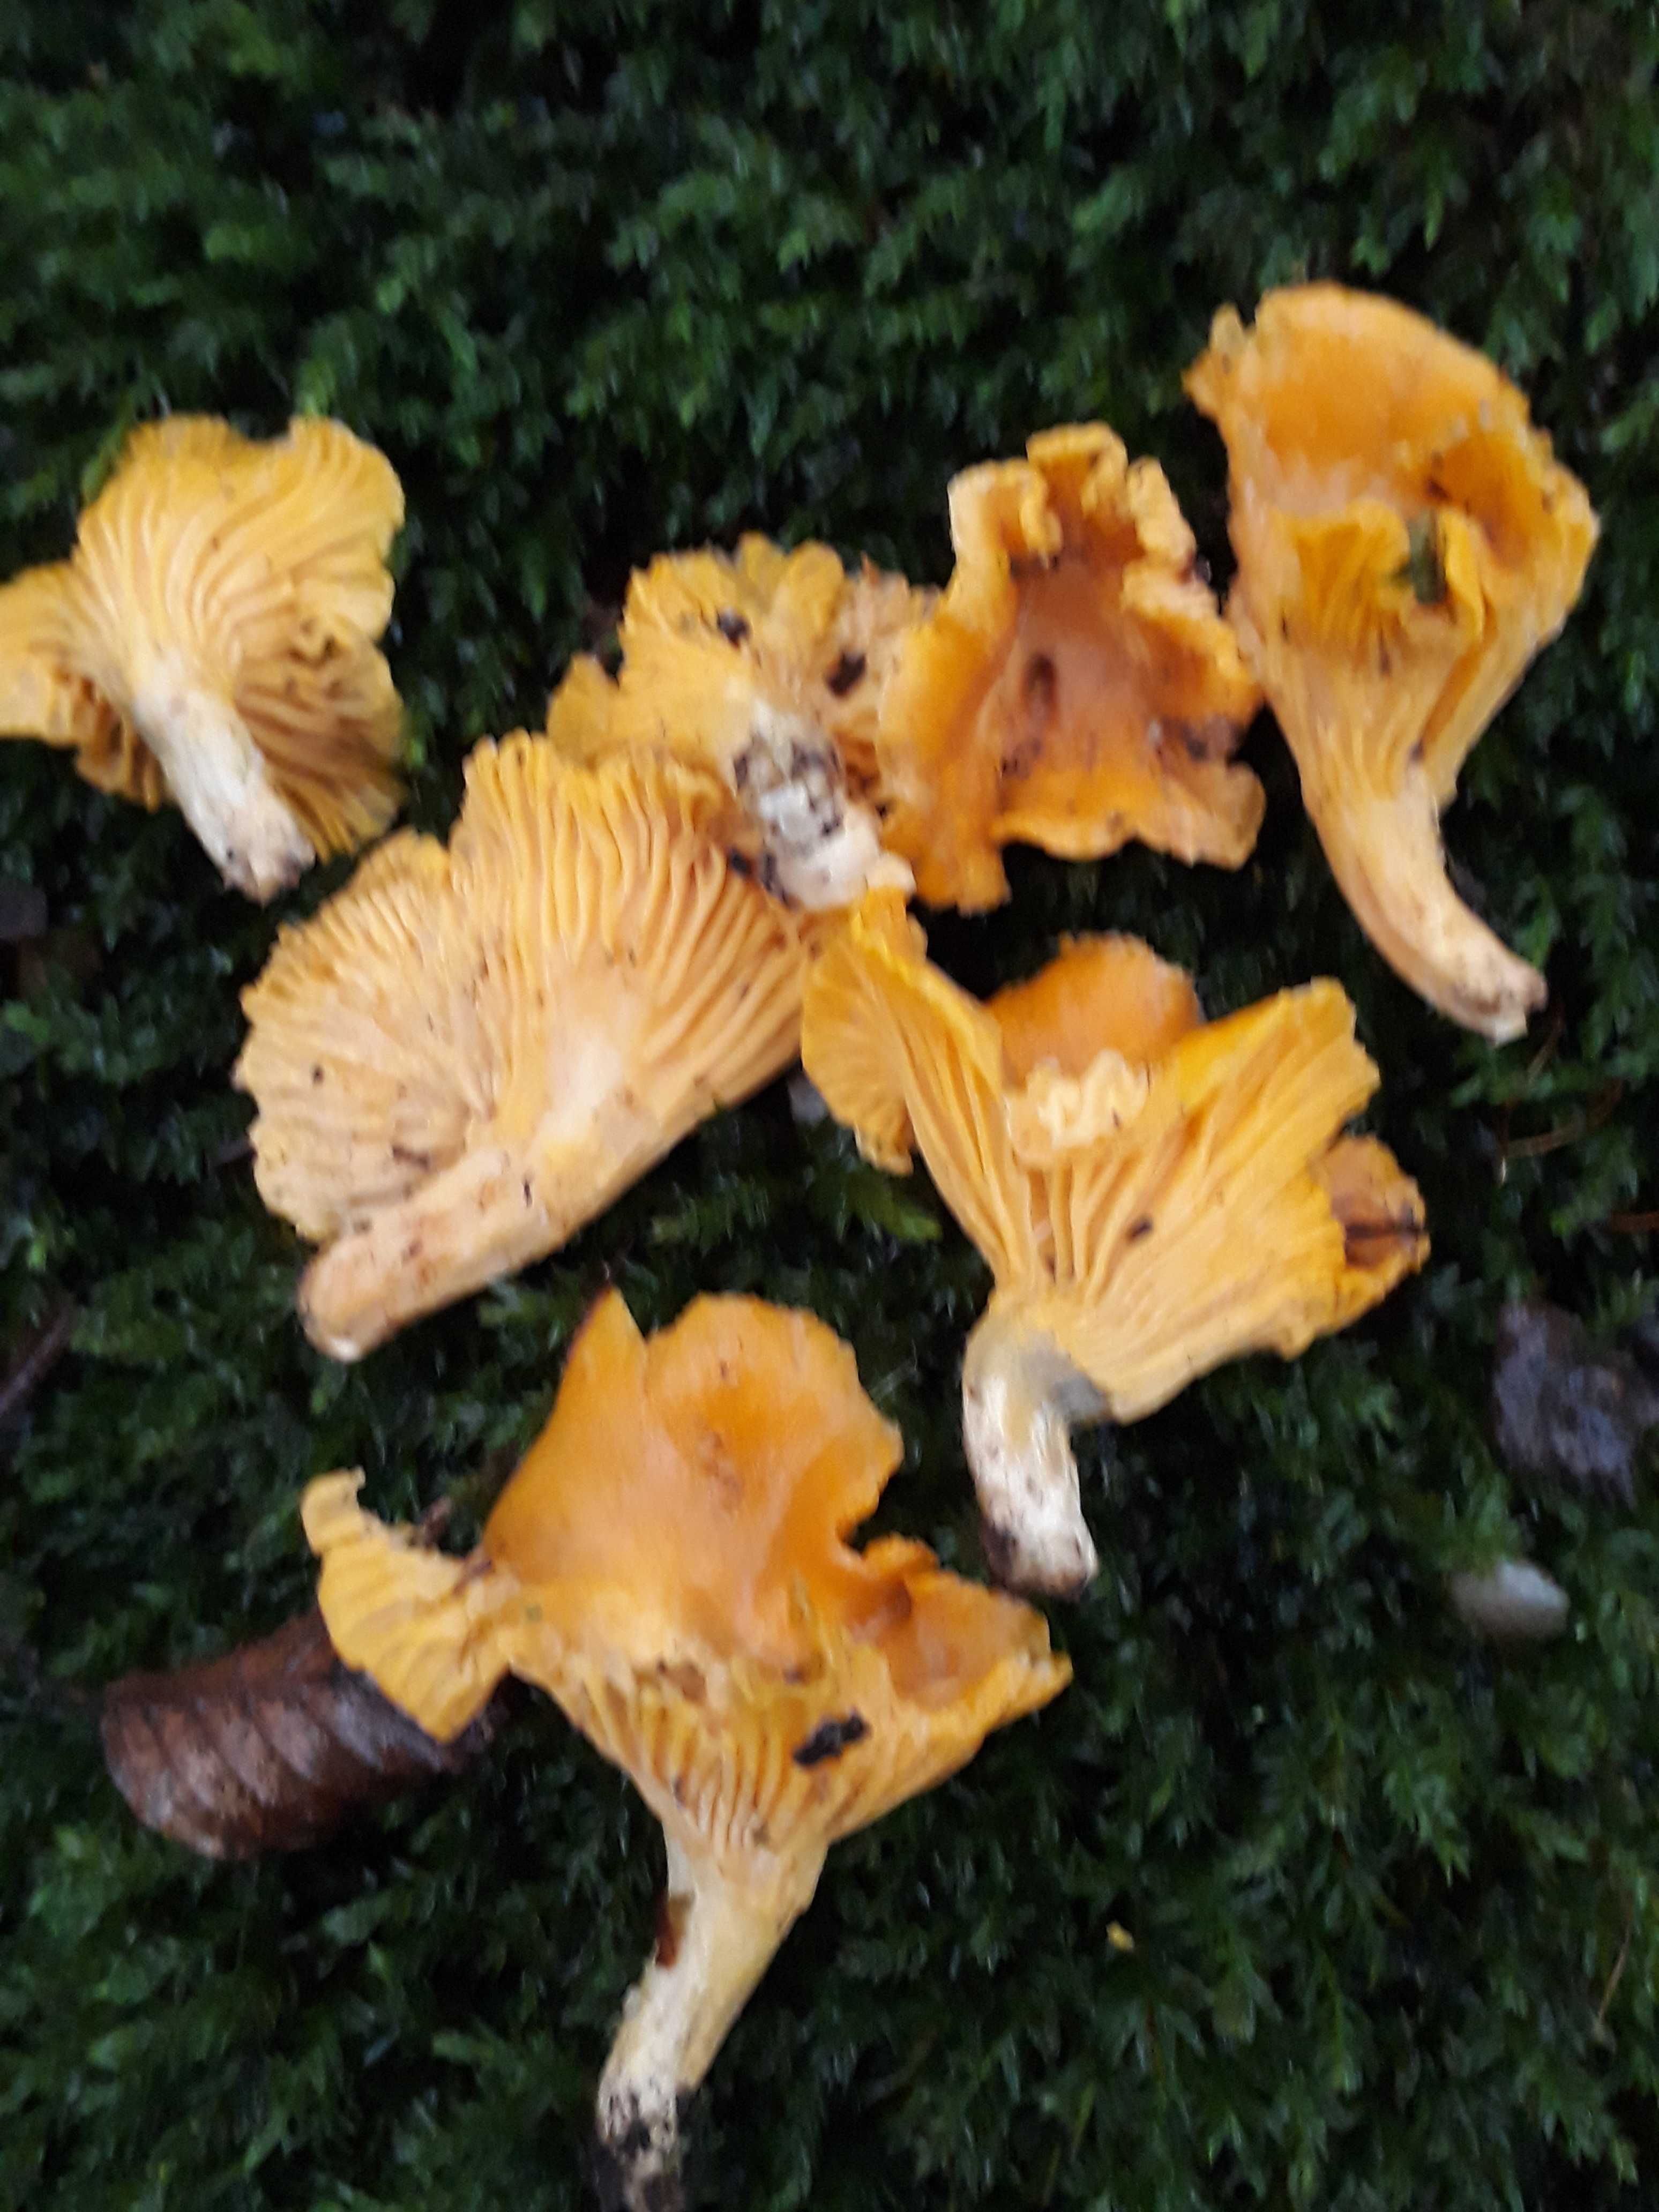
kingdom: Fungi
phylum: Basidiomycota
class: Agaricomycetes
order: Cantharellales
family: Hydnaceae
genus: Cantharellus
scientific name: Cantharellus cibarius
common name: almindelig kantarel
